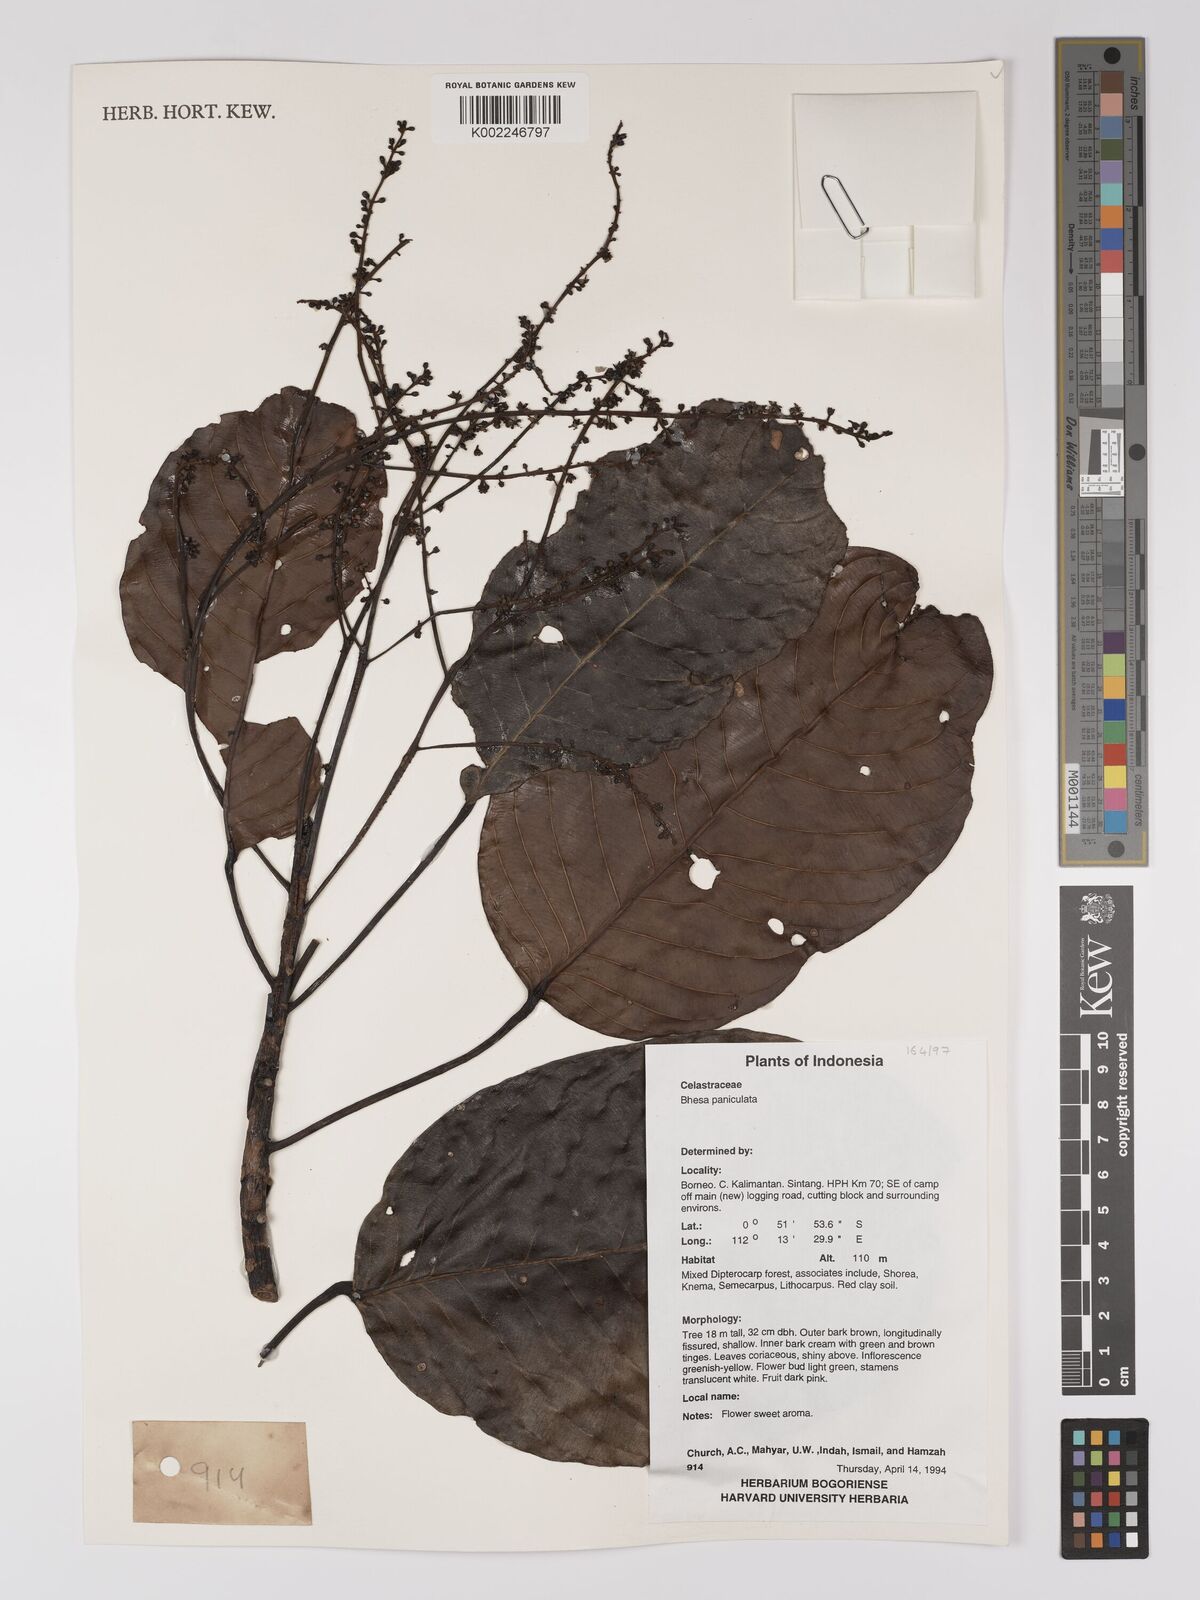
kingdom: Plantae
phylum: Tracheophyta
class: Magnoliopsida
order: Malpighiales
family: Centroplacaceae
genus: Bhesa
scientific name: Bhesa paniculata
